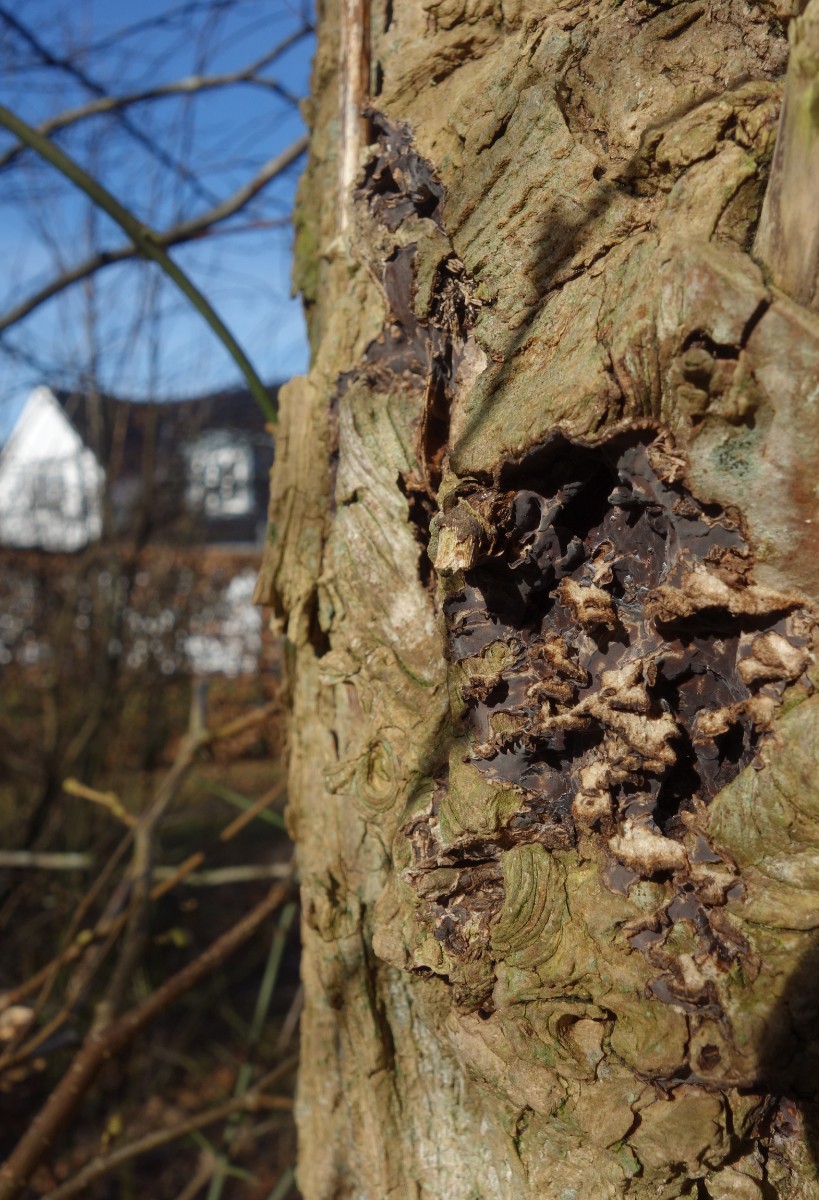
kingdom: Fungi
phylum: Basidiomycota
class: Agaricomycetes
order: Agaricales
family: Cyphellaceae
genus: Chondrostereum
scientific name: Chondrostereum purpureum
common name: purpurlædersvamp
